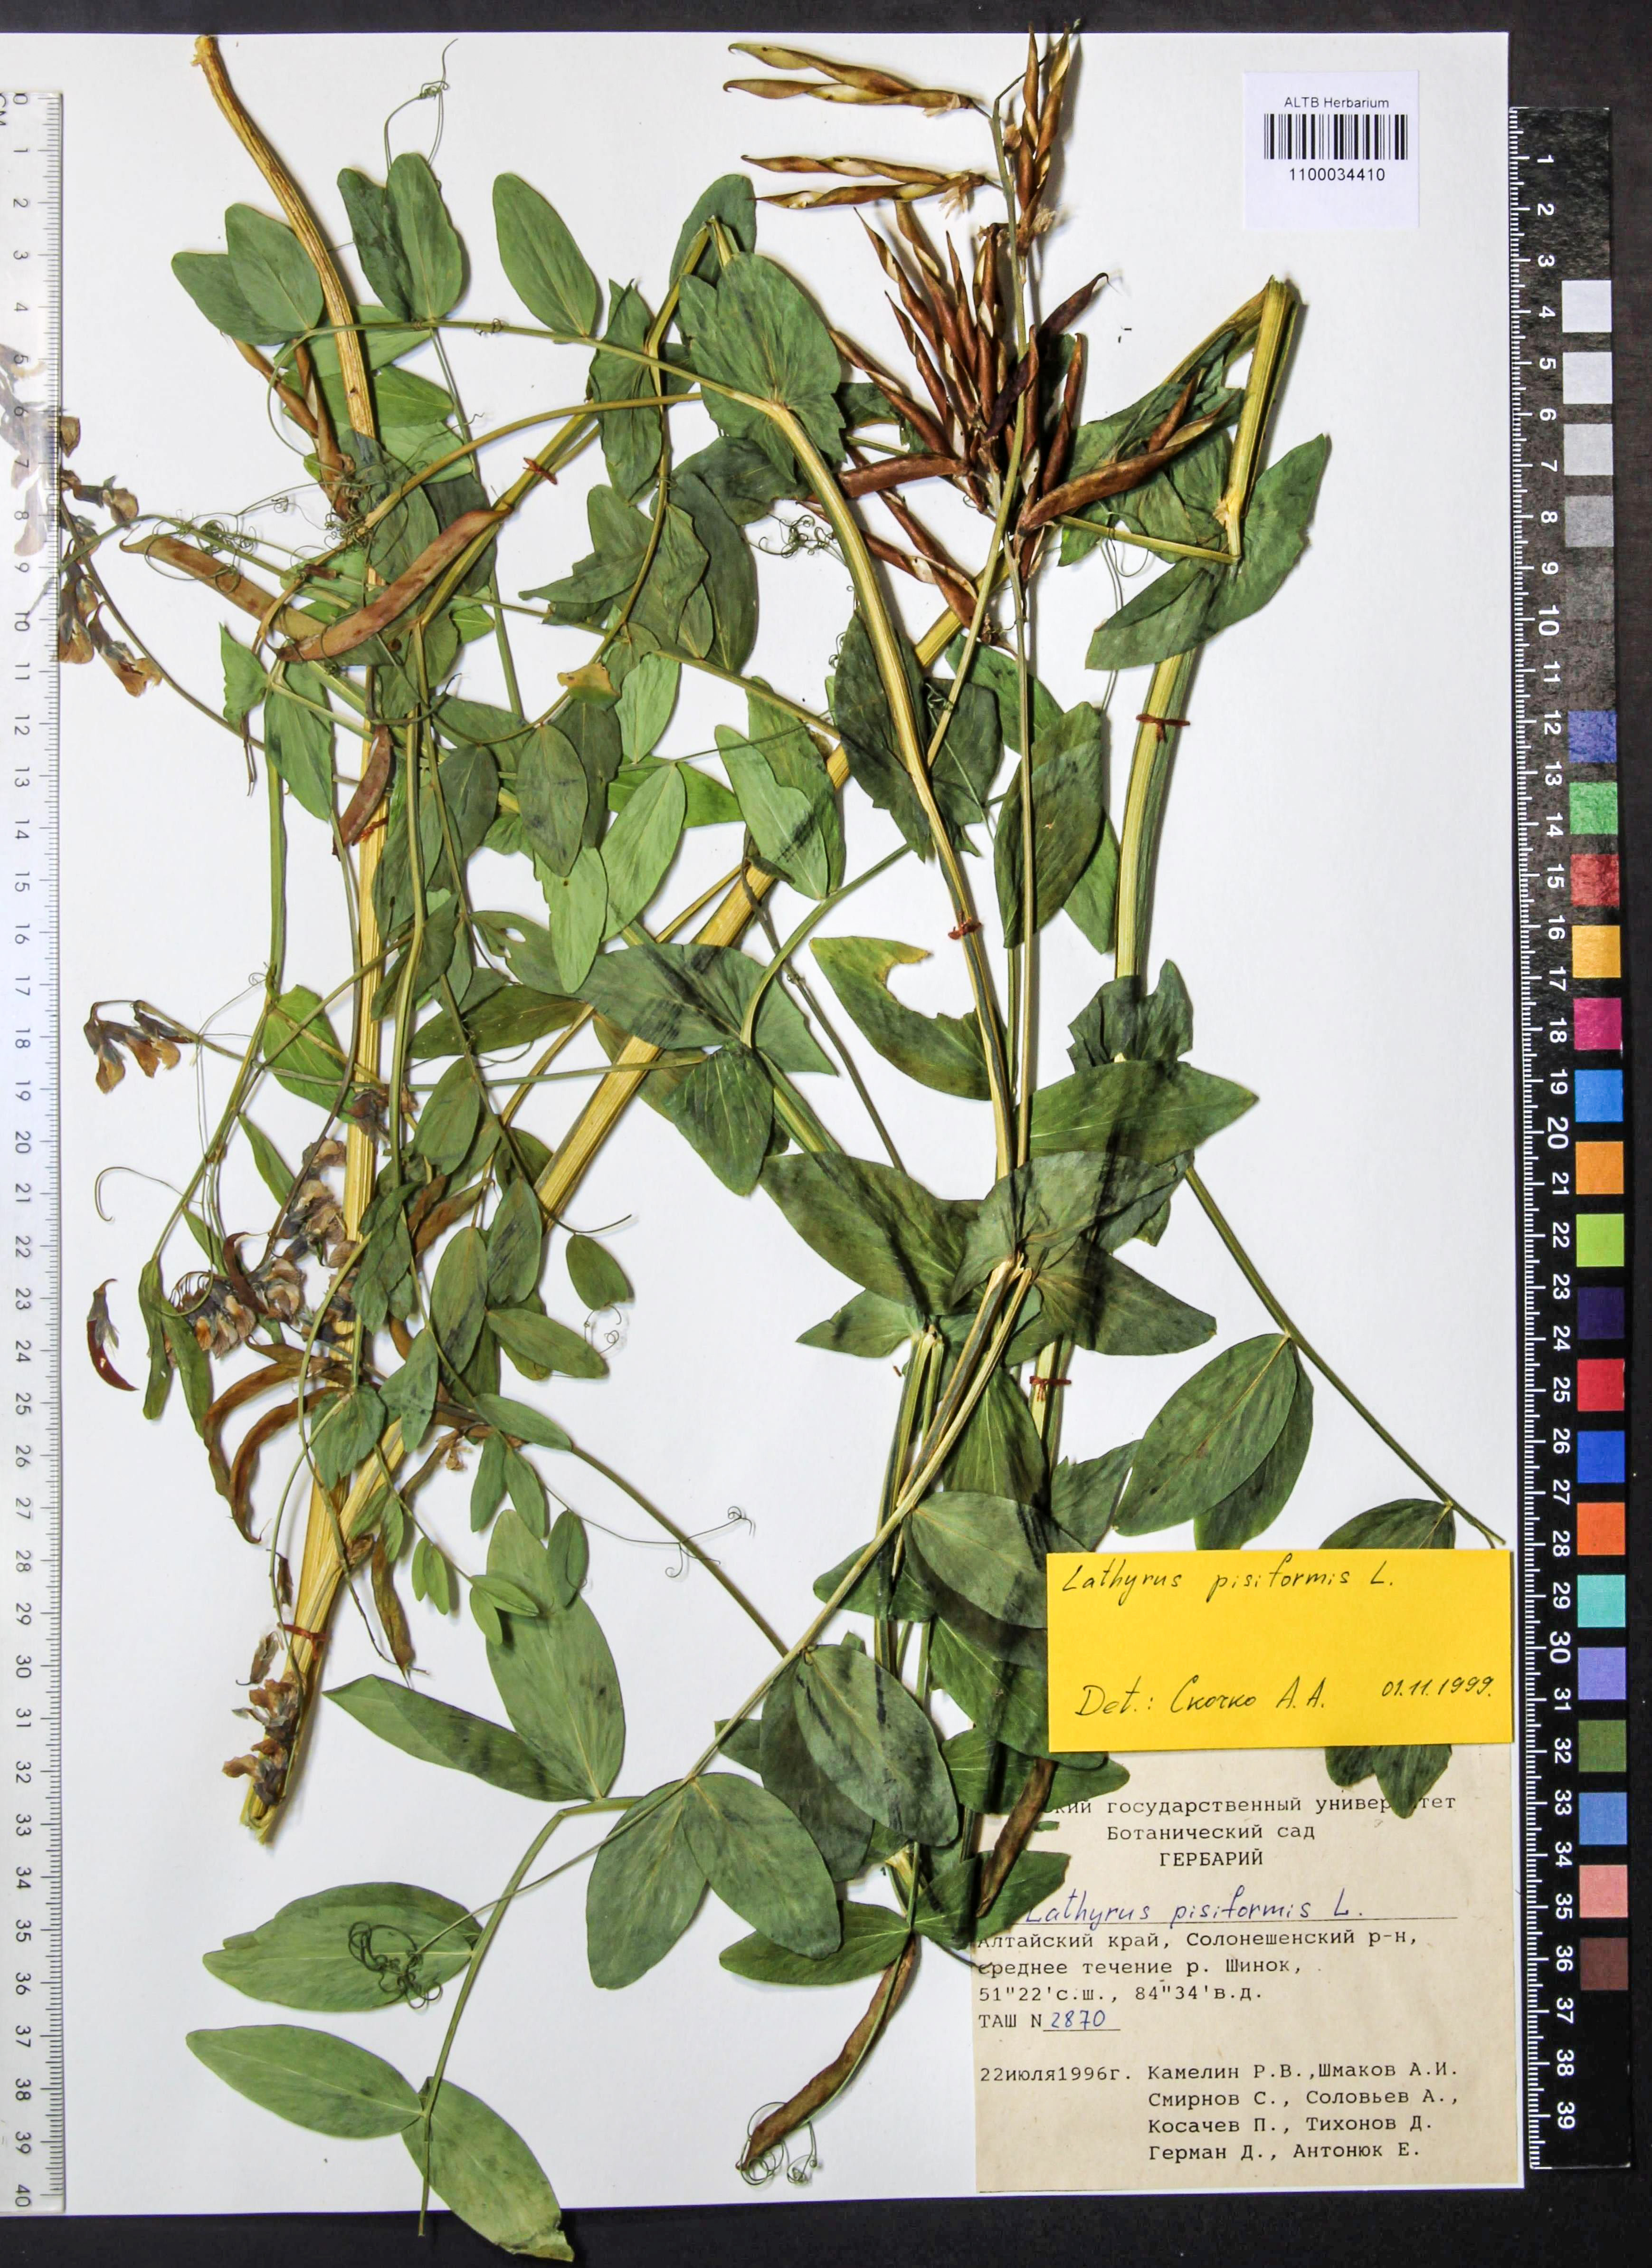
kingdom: Plantae
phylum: Tracheophyta
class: Magnoliopsida
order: Fabales
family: Fabaceae
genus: Lathyrus
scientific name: Lathyrus pisiformis
